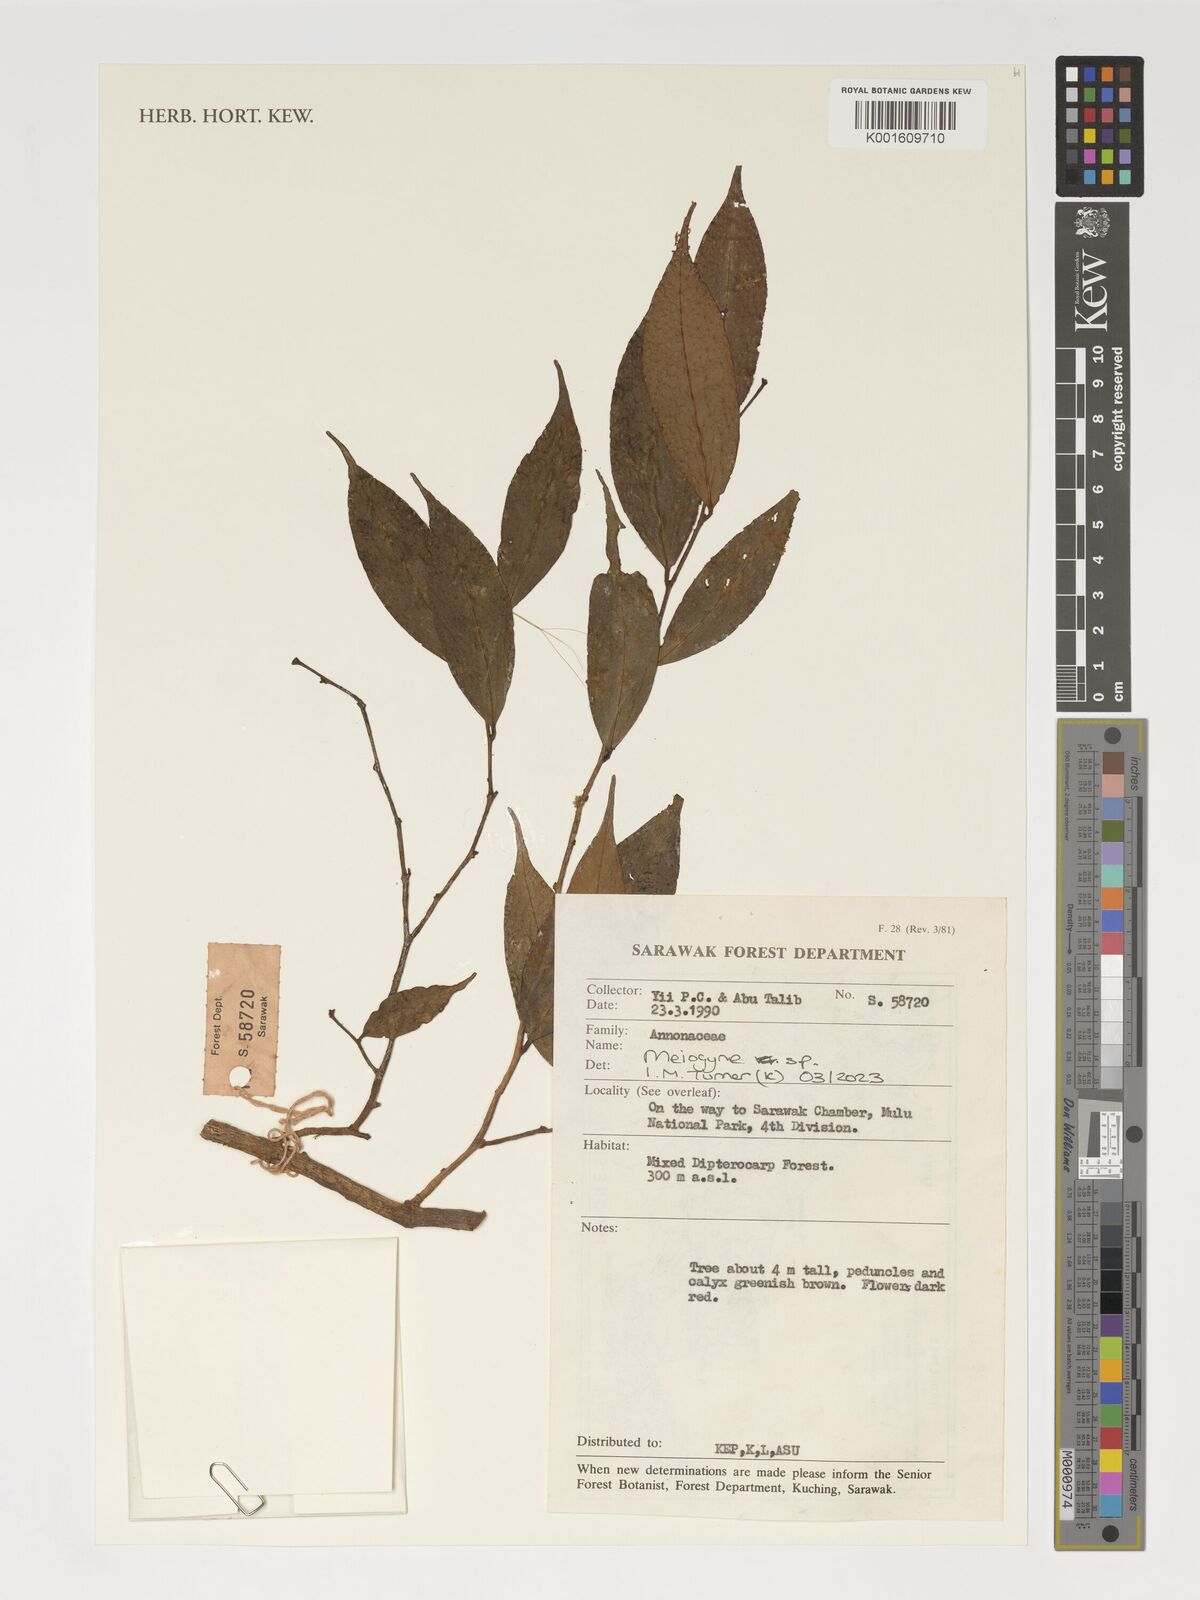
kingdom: Plantae
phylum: Tracheophyta
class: Magnoliopsida
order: Magnoliales
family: Annonaceae
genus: Meiogyne
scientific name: Meiogyne
